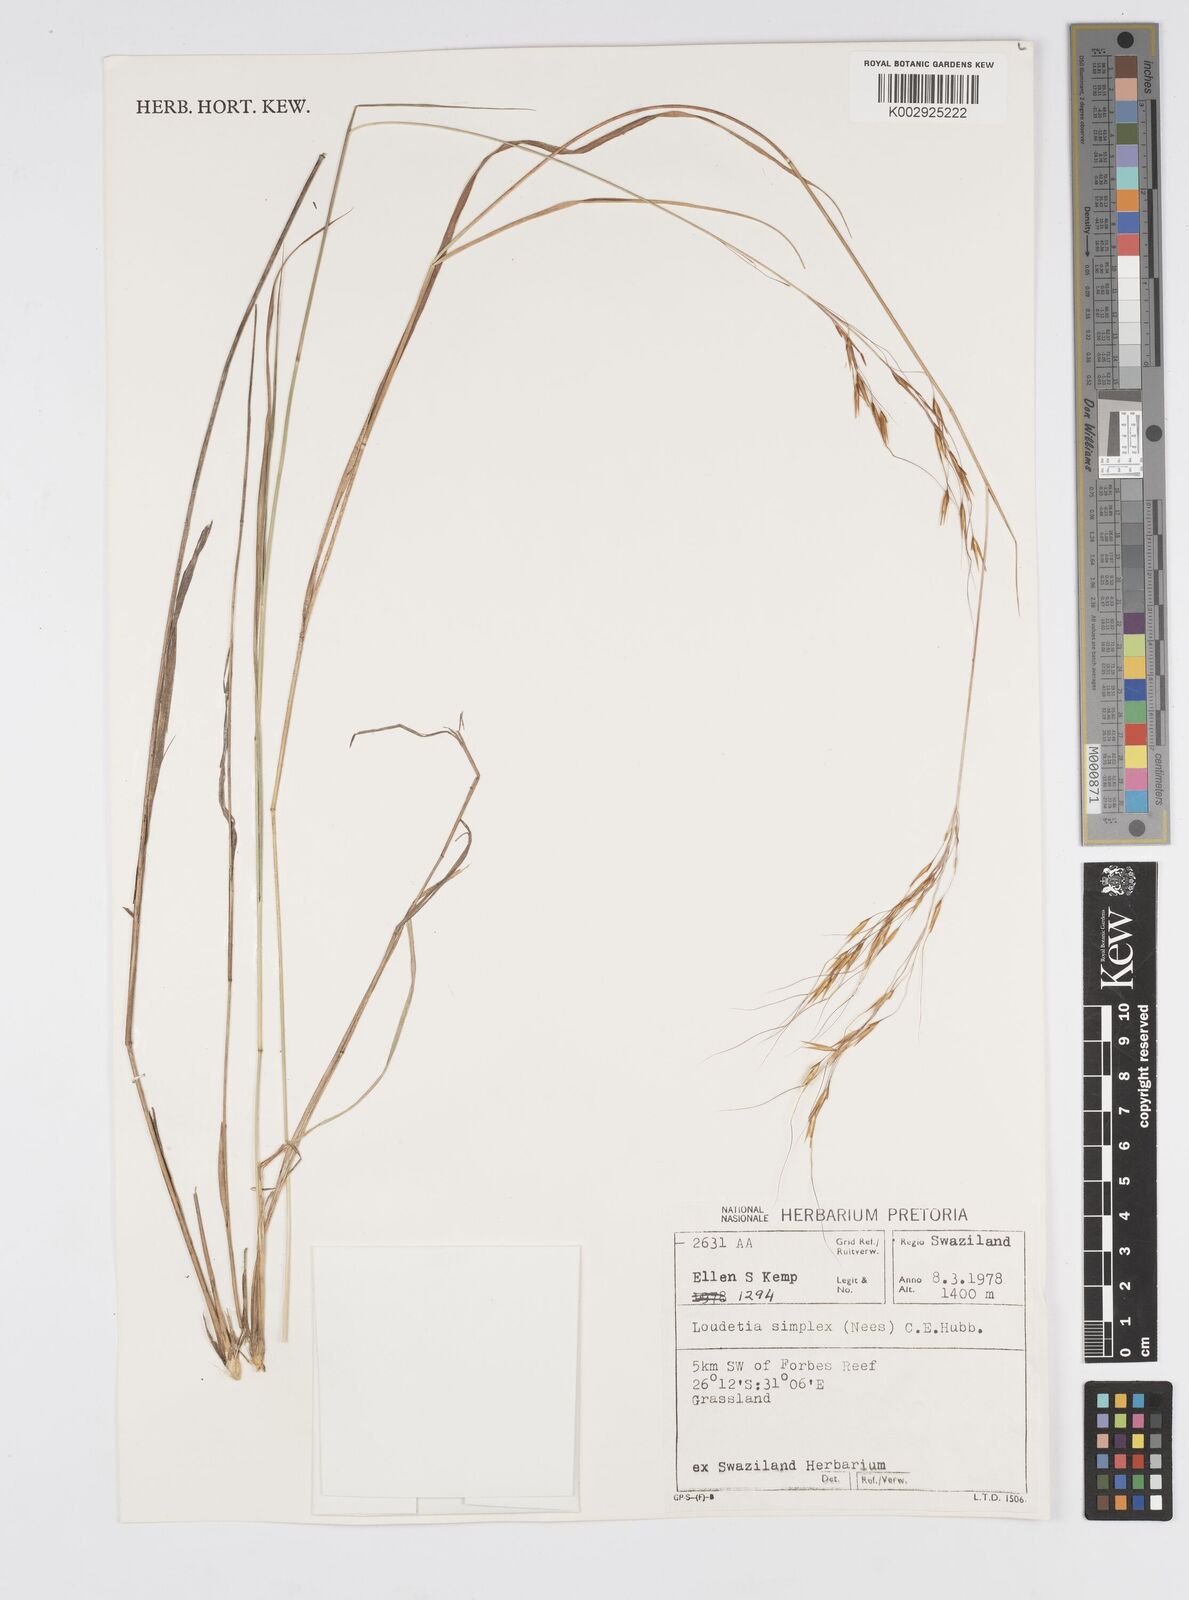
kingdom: Plantae
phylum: Tracheophyta
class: Liliopsida
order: Poales
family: Poaceae
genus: Loudetia
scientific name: Loudetia simplex
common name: Common russet grass
